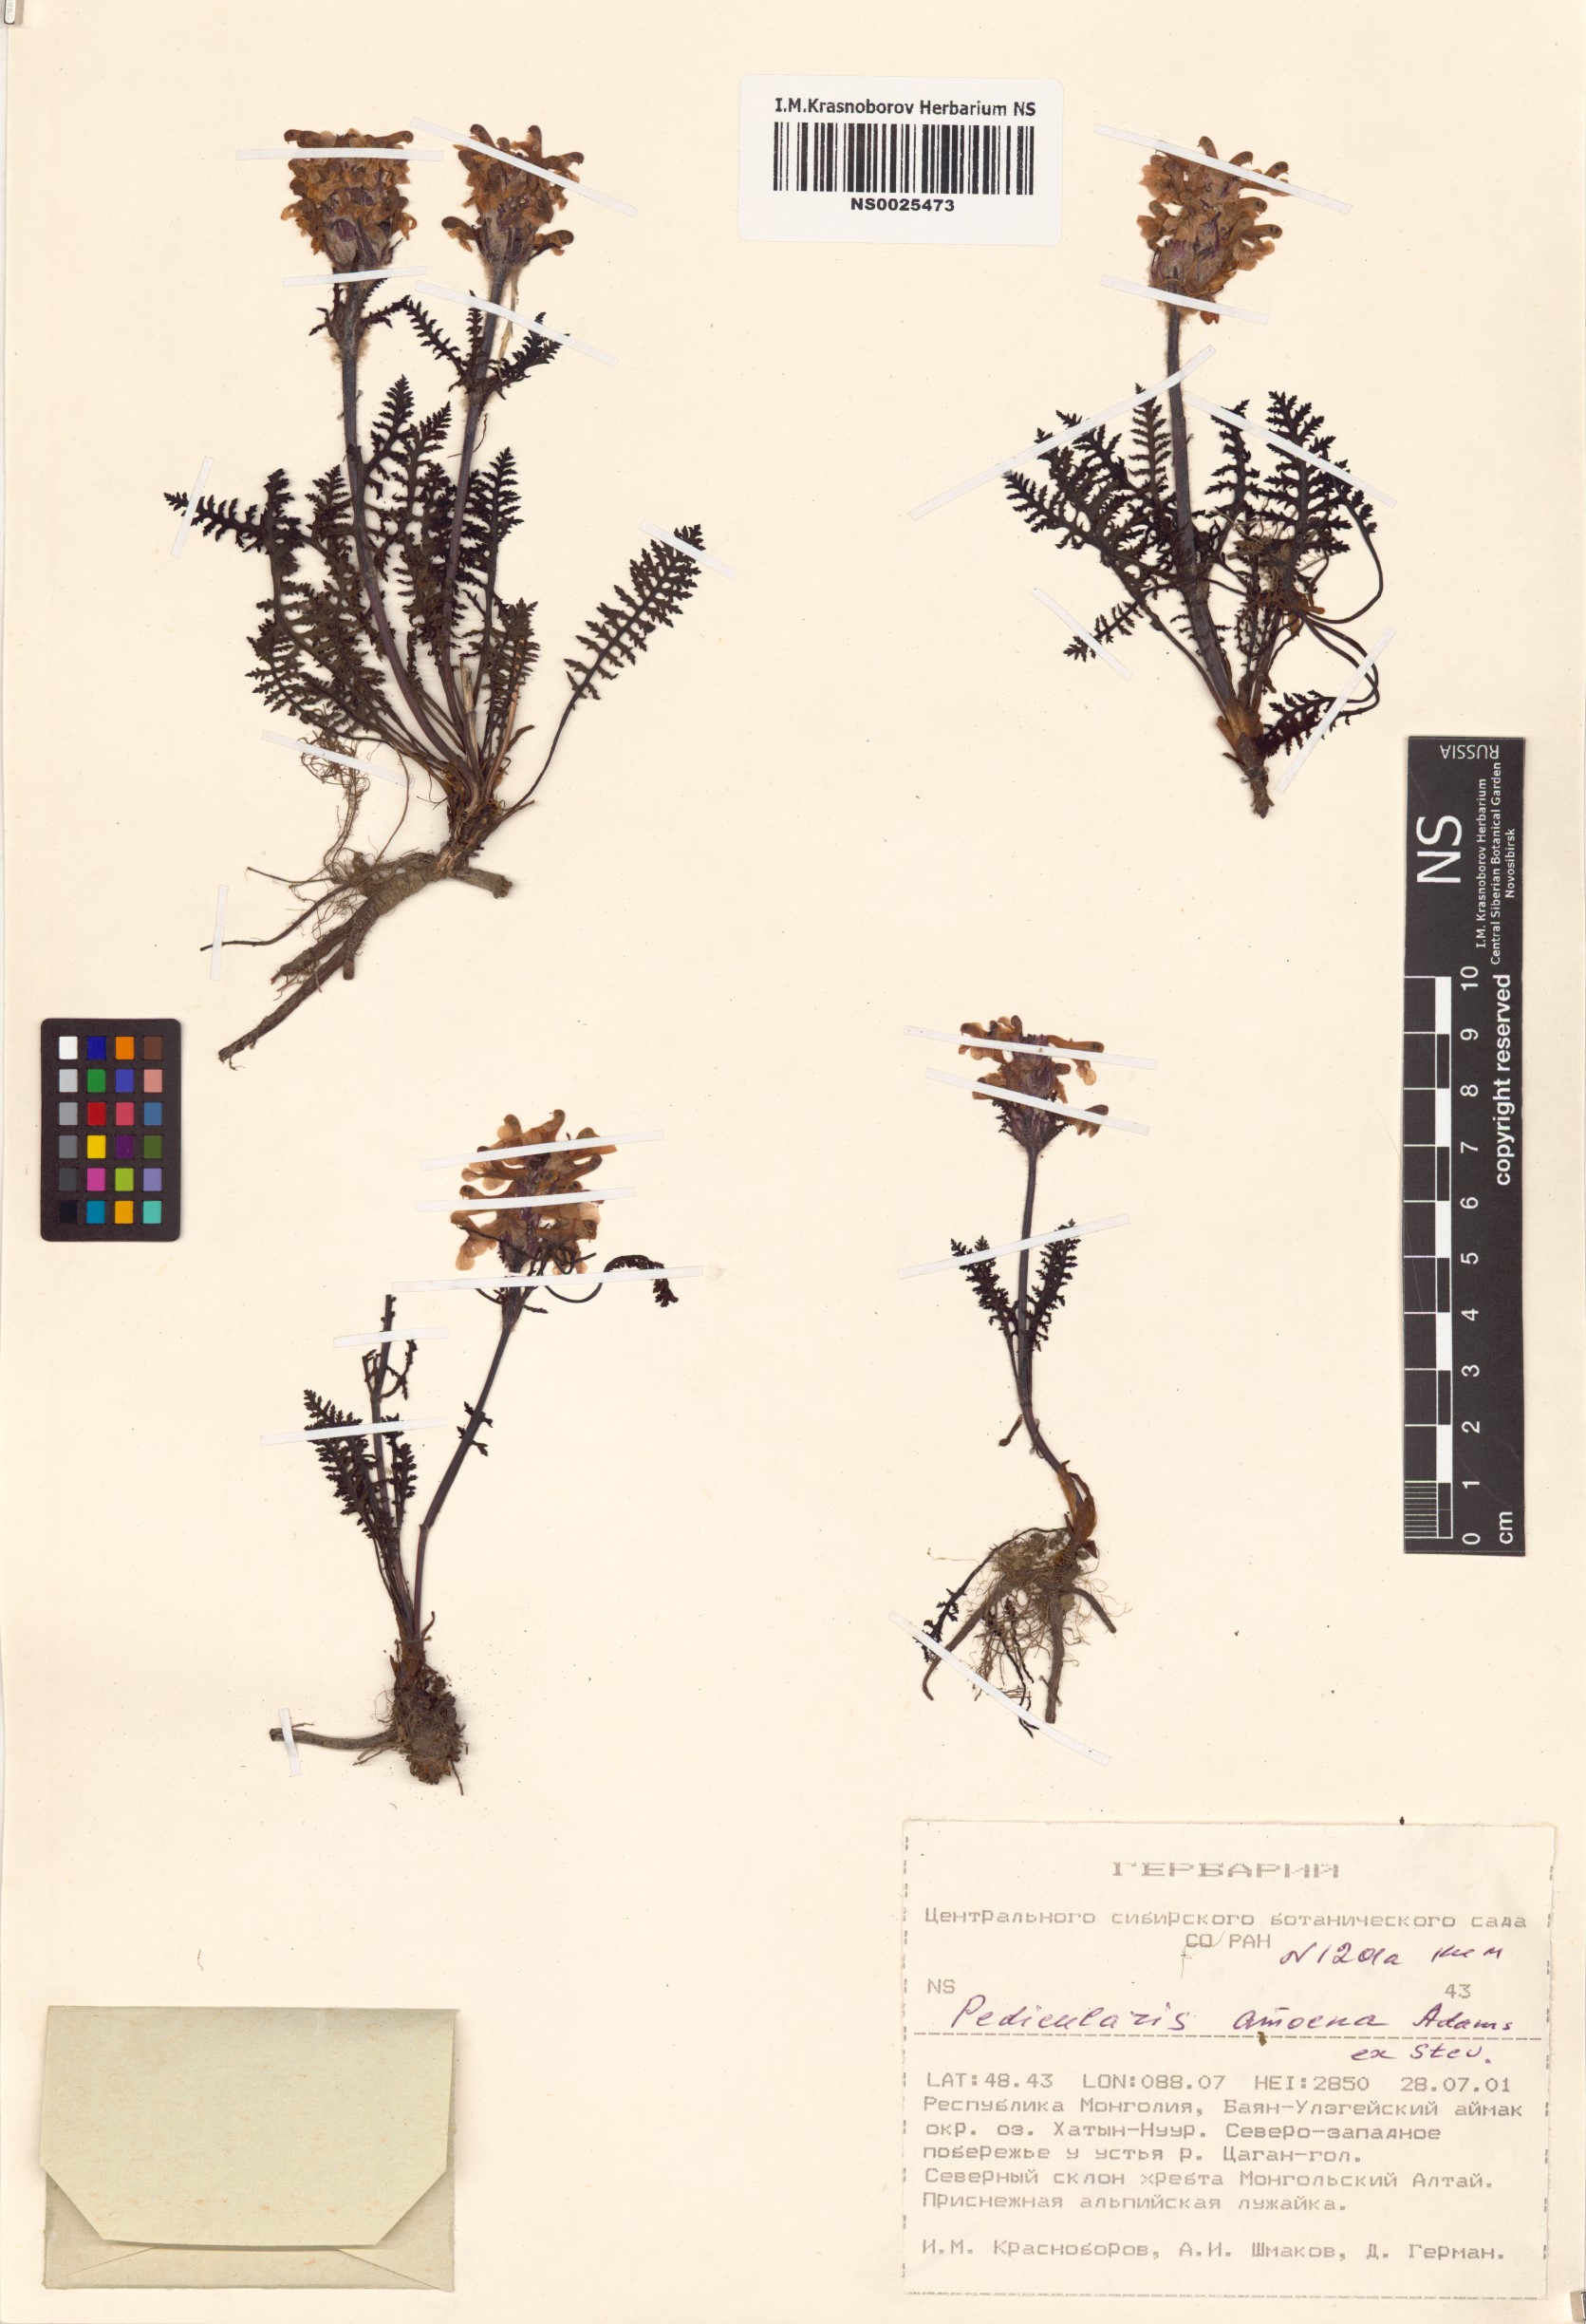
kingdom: Plantae
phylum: Tracheophyta
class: Magnoliopsida
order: Lamiales
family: Orobanchaceae
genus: Pedicularis
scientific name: Pedicularis amoena
